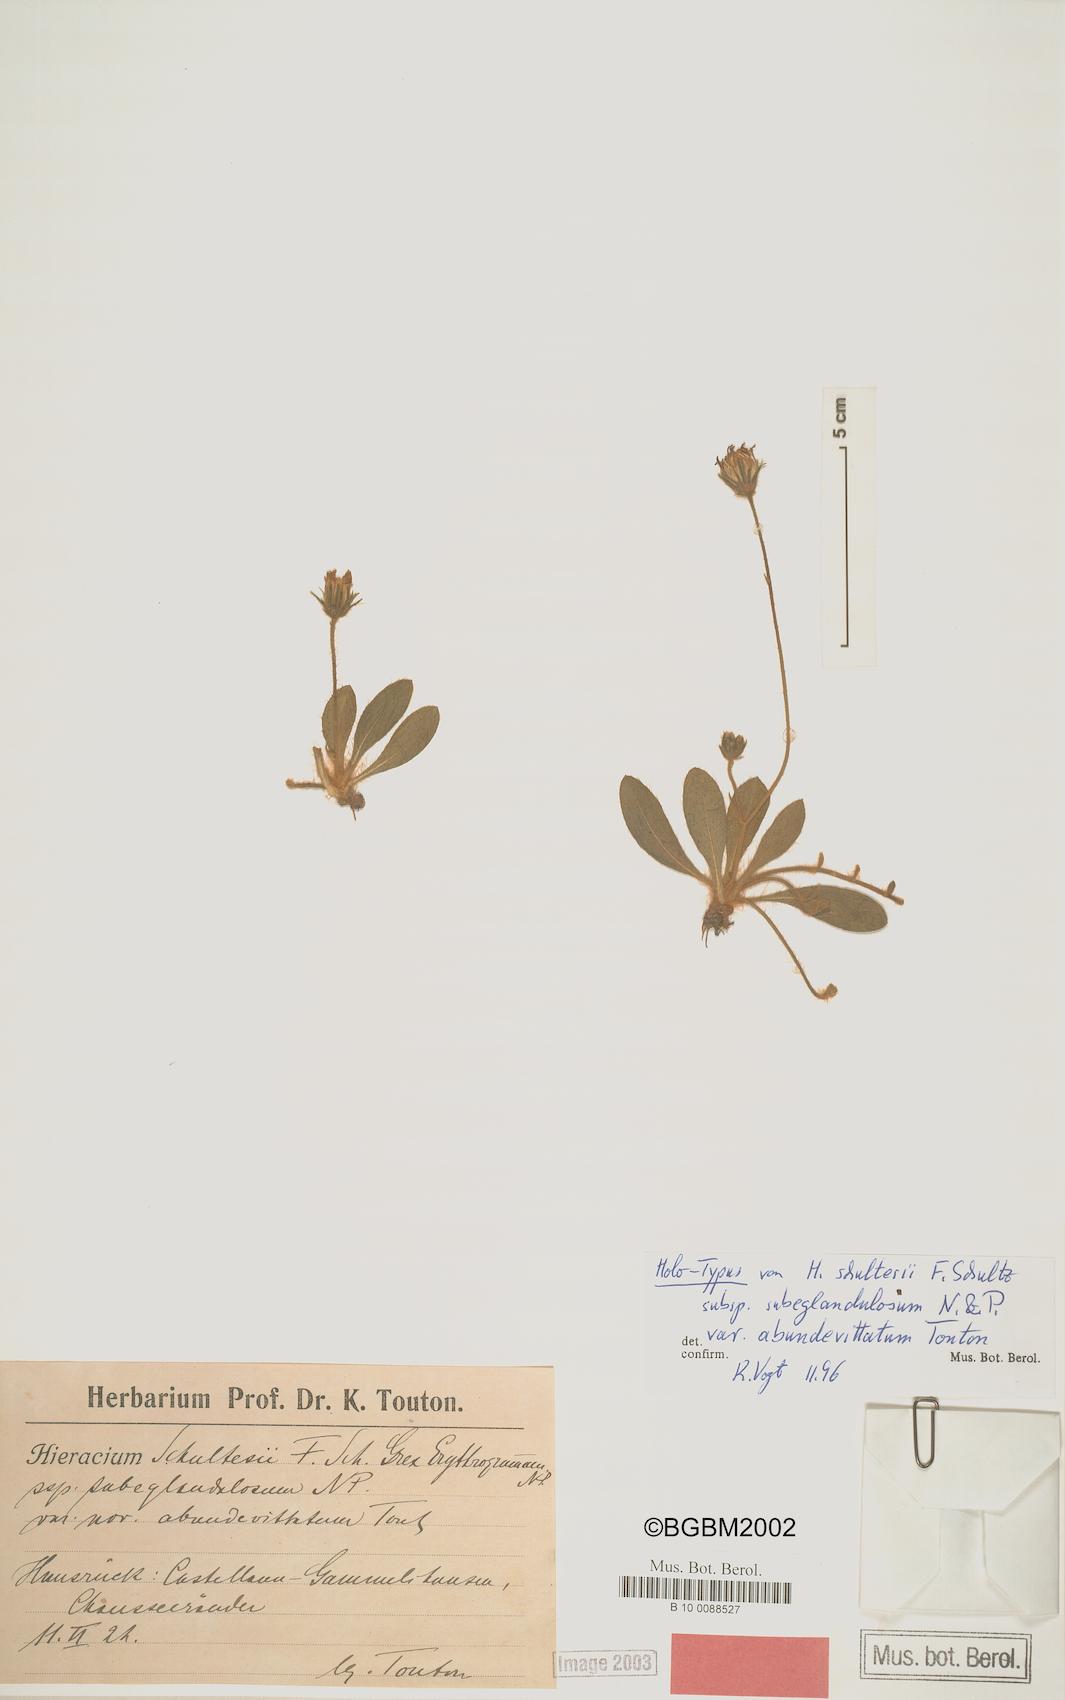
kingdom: Plantae
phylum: Tracheophyta
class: Magnoliopsida
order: Asterales
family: Asteraceae
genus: Pilosella
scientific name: Pilosella schultesii
